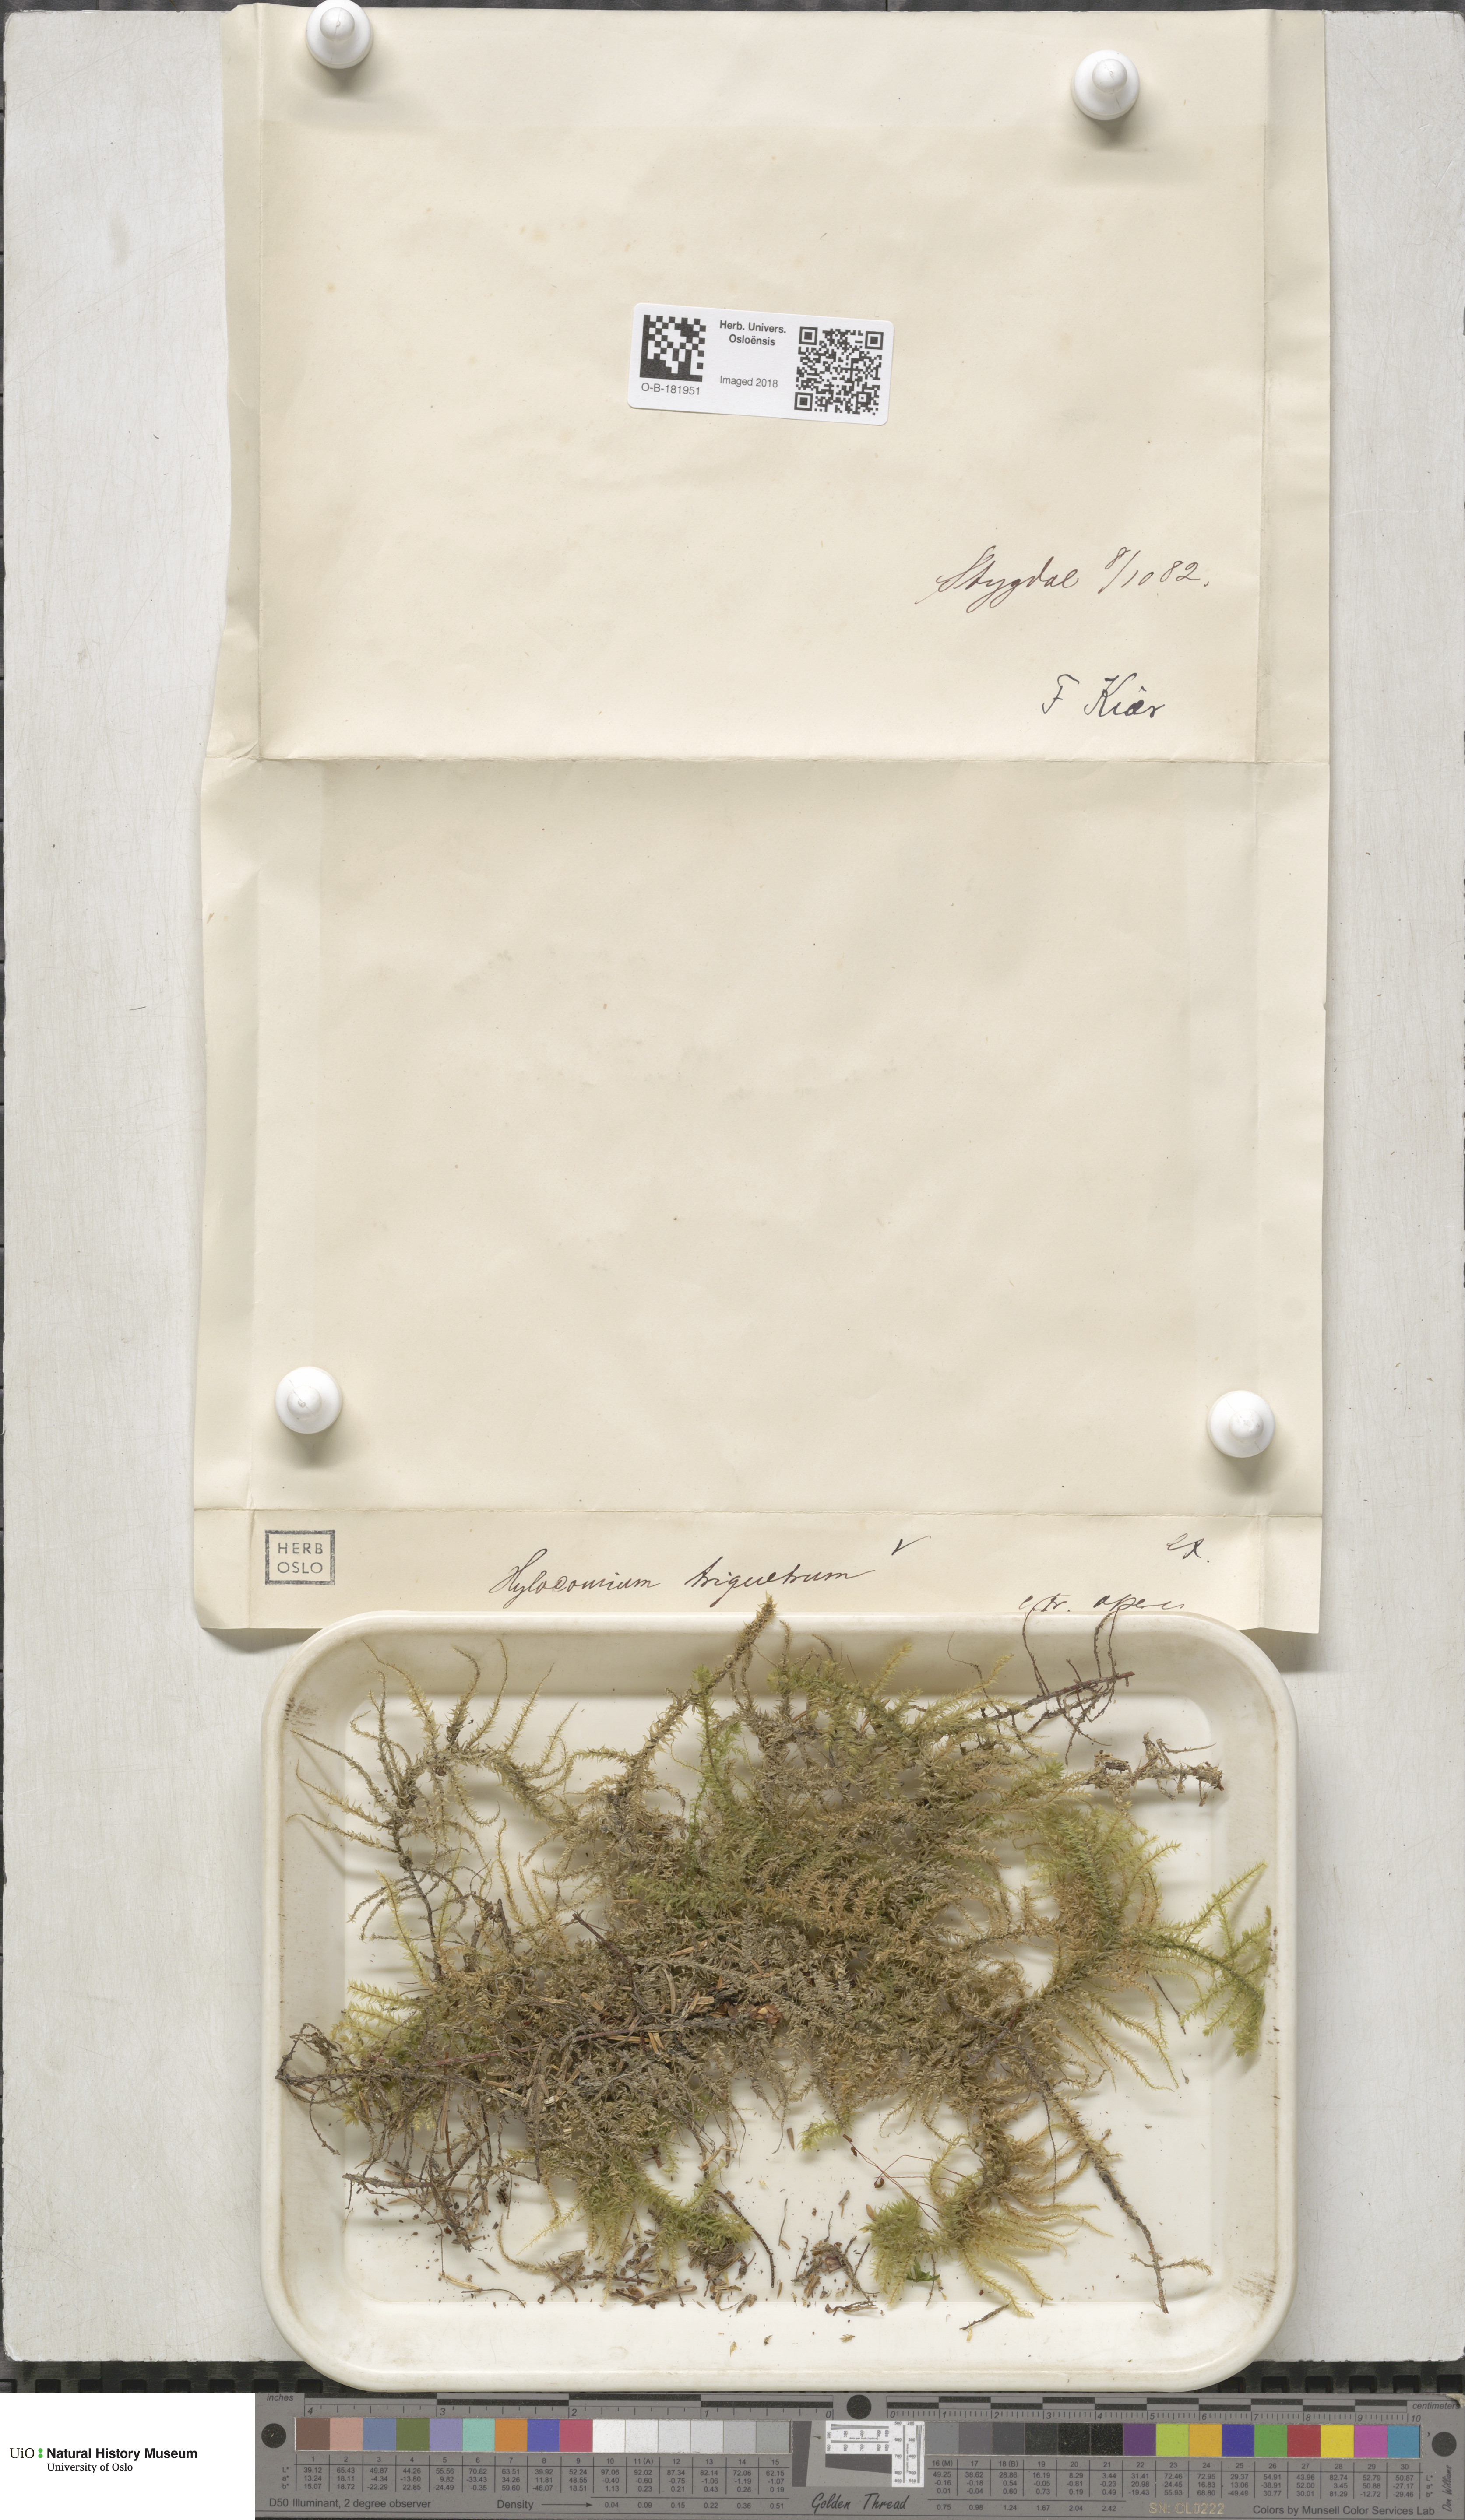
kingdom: Plantae
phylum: Bryophyta
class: Bryopsida
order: Hypnales
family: Hylocomiaceae
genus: Hylocomiadelphus
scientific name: Hylocomiadelphus triquetrus
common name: Rough goose neck moss
